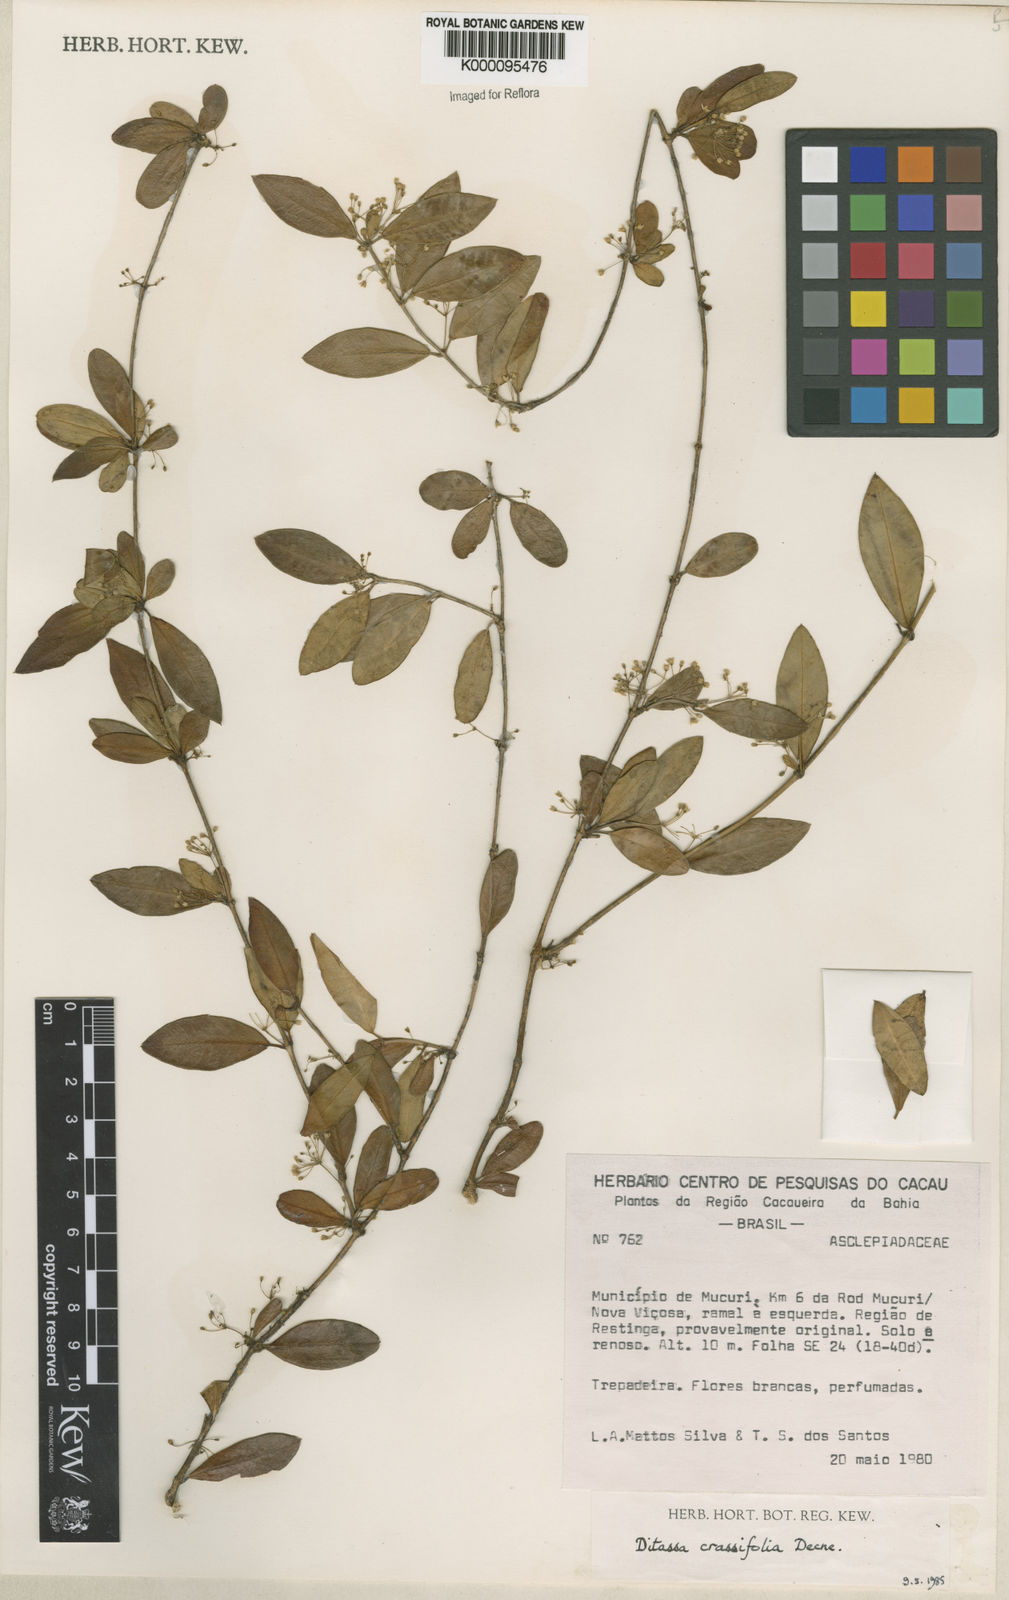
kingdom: Plantae
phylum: Tracheophyta
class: Magnoliopsida
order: Gentianales
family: Apocynaceae
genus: Ditassa
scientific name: Ditassa crassifolia
